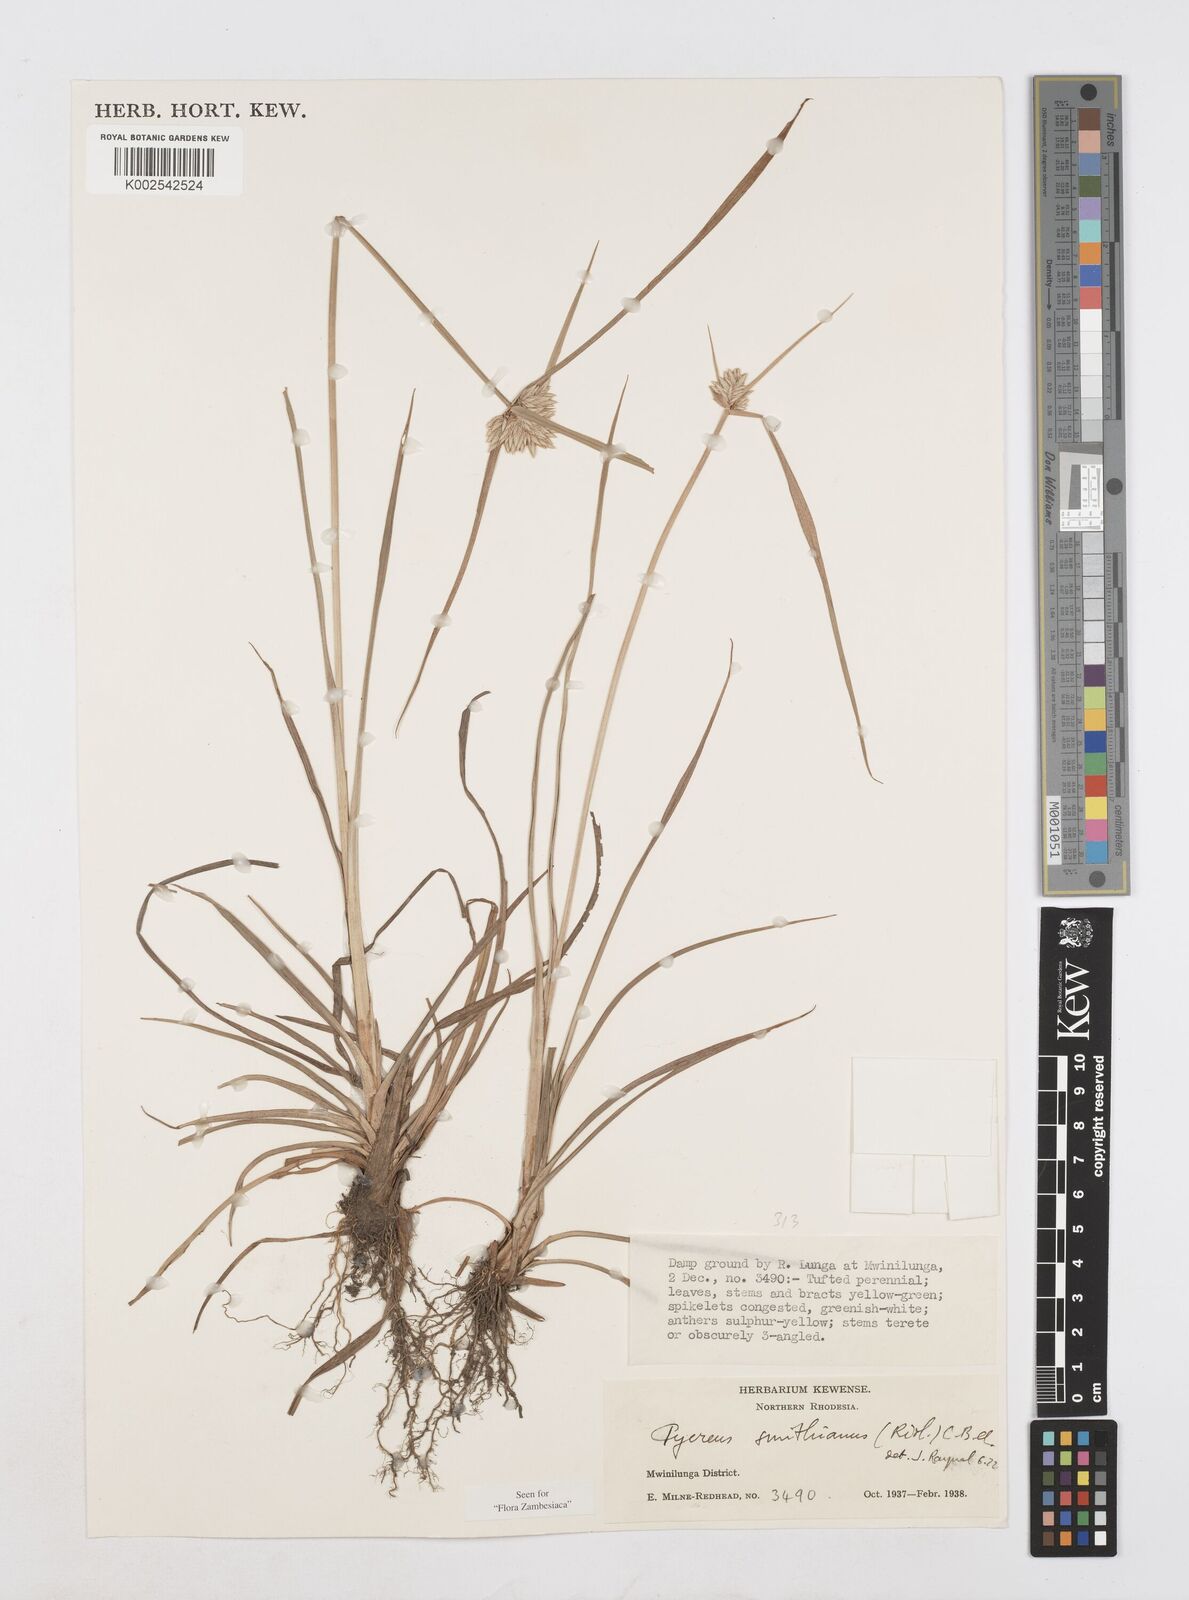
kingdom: Plantae
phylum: Tracheophyta
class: Liliopsida
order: Poales
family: Cyperaceae
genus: Cyperus
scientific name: Cyperus smithianus
